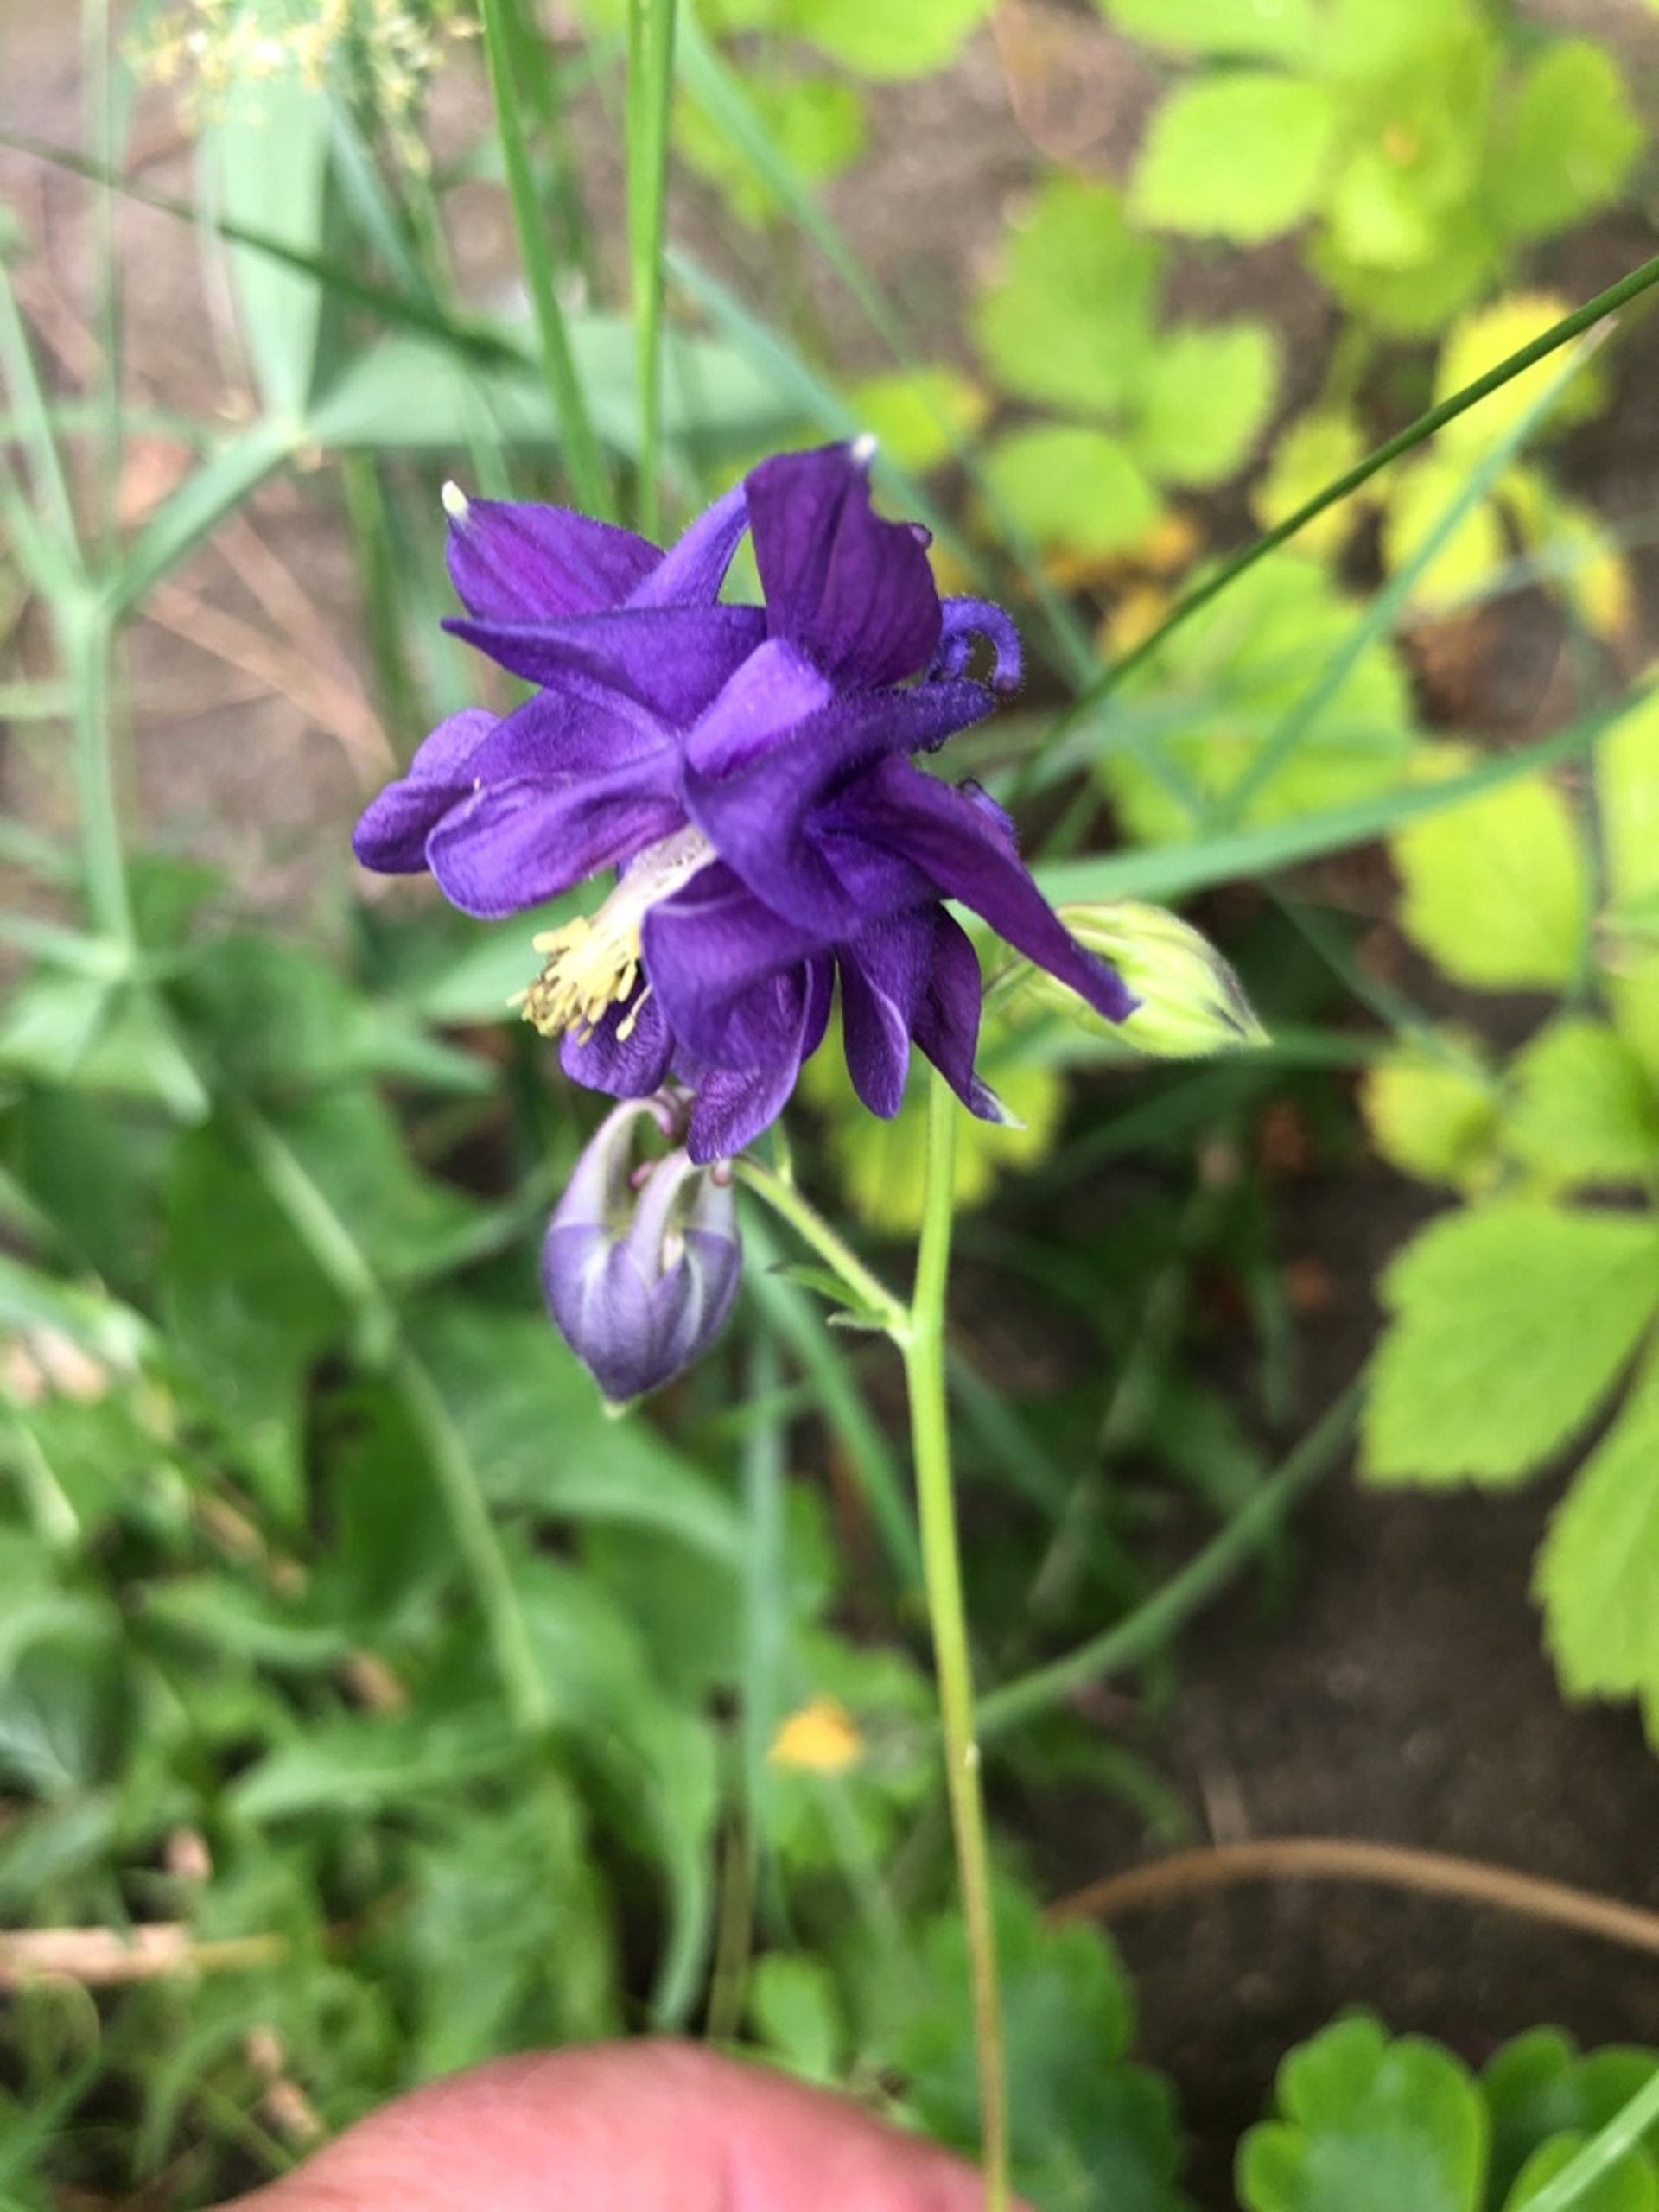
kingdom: Plantae
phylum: Tracheophyta
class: Magnoliopsida
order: Ranunculales
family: Ranunculaceae
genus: Aquilegia
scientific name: Aquilegia vulgaris
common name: Akeleje
